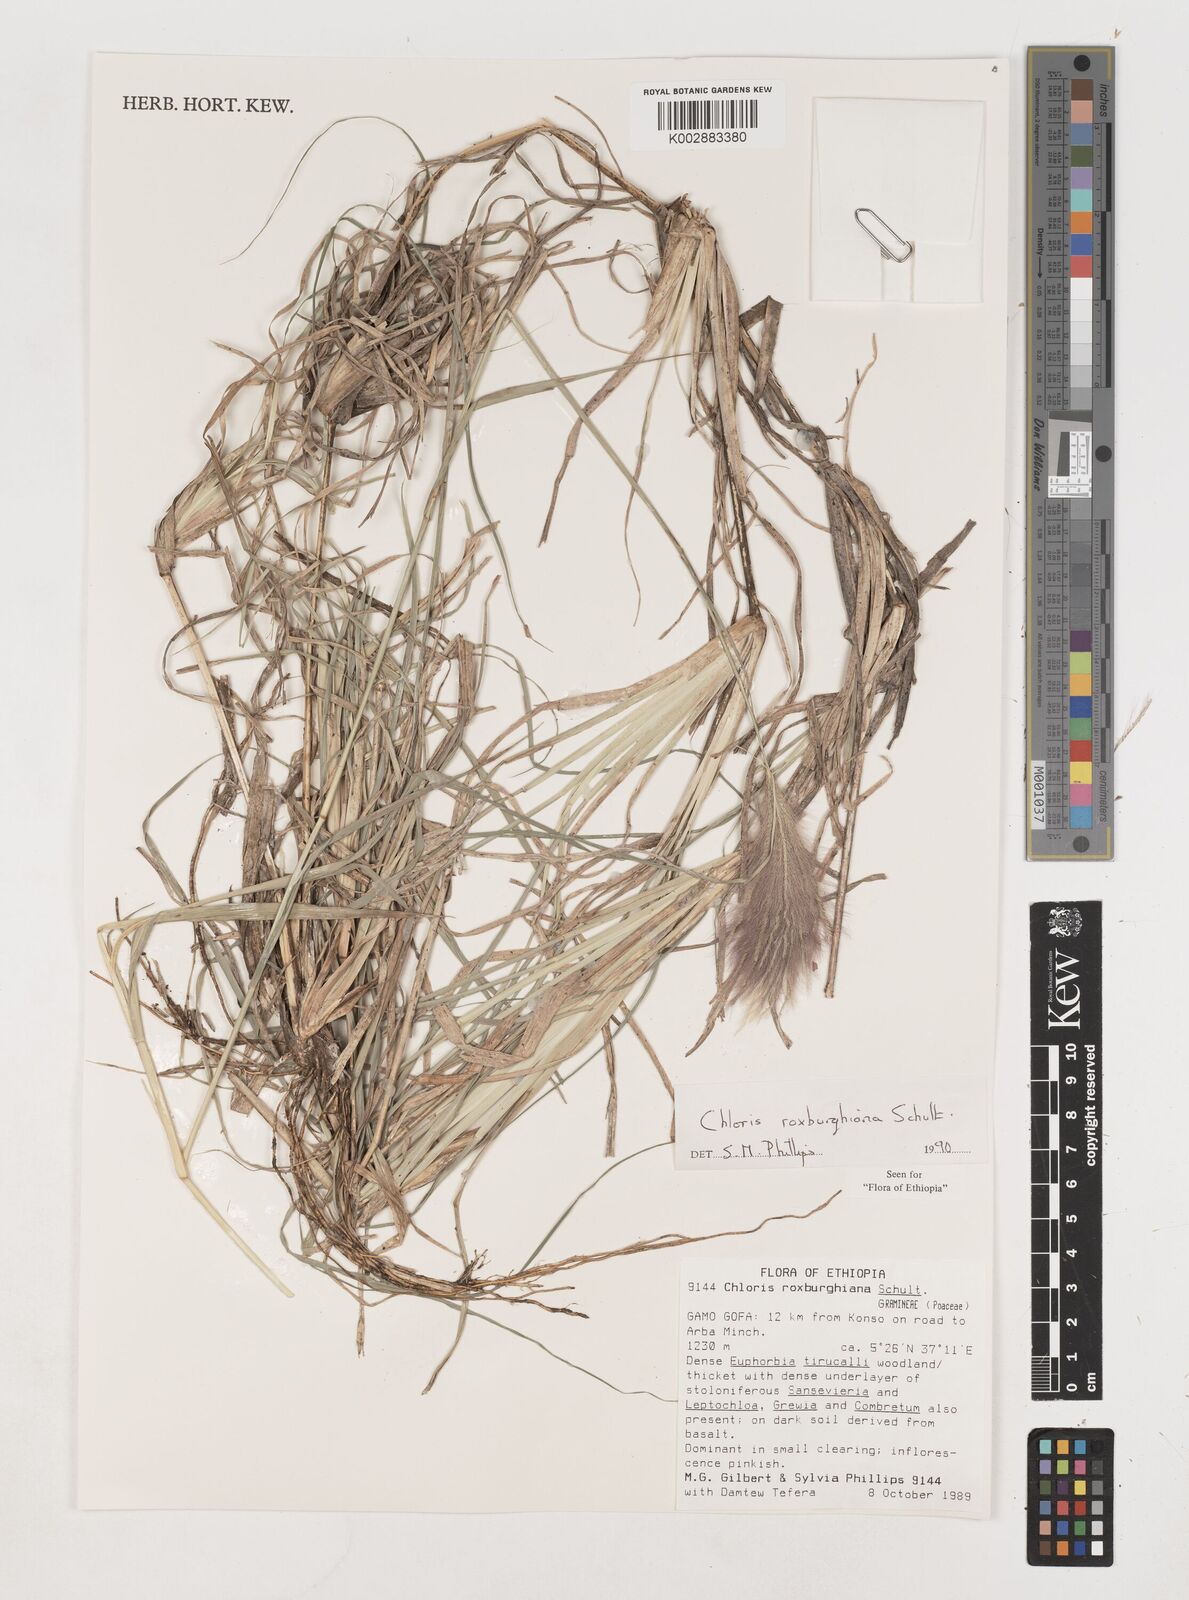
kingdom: Plantae
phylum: Tracheophyta
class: Liliopsida
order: Poales
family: Poaceae
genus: Tetrapogon
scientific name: Tetrapogon roxburghiana
